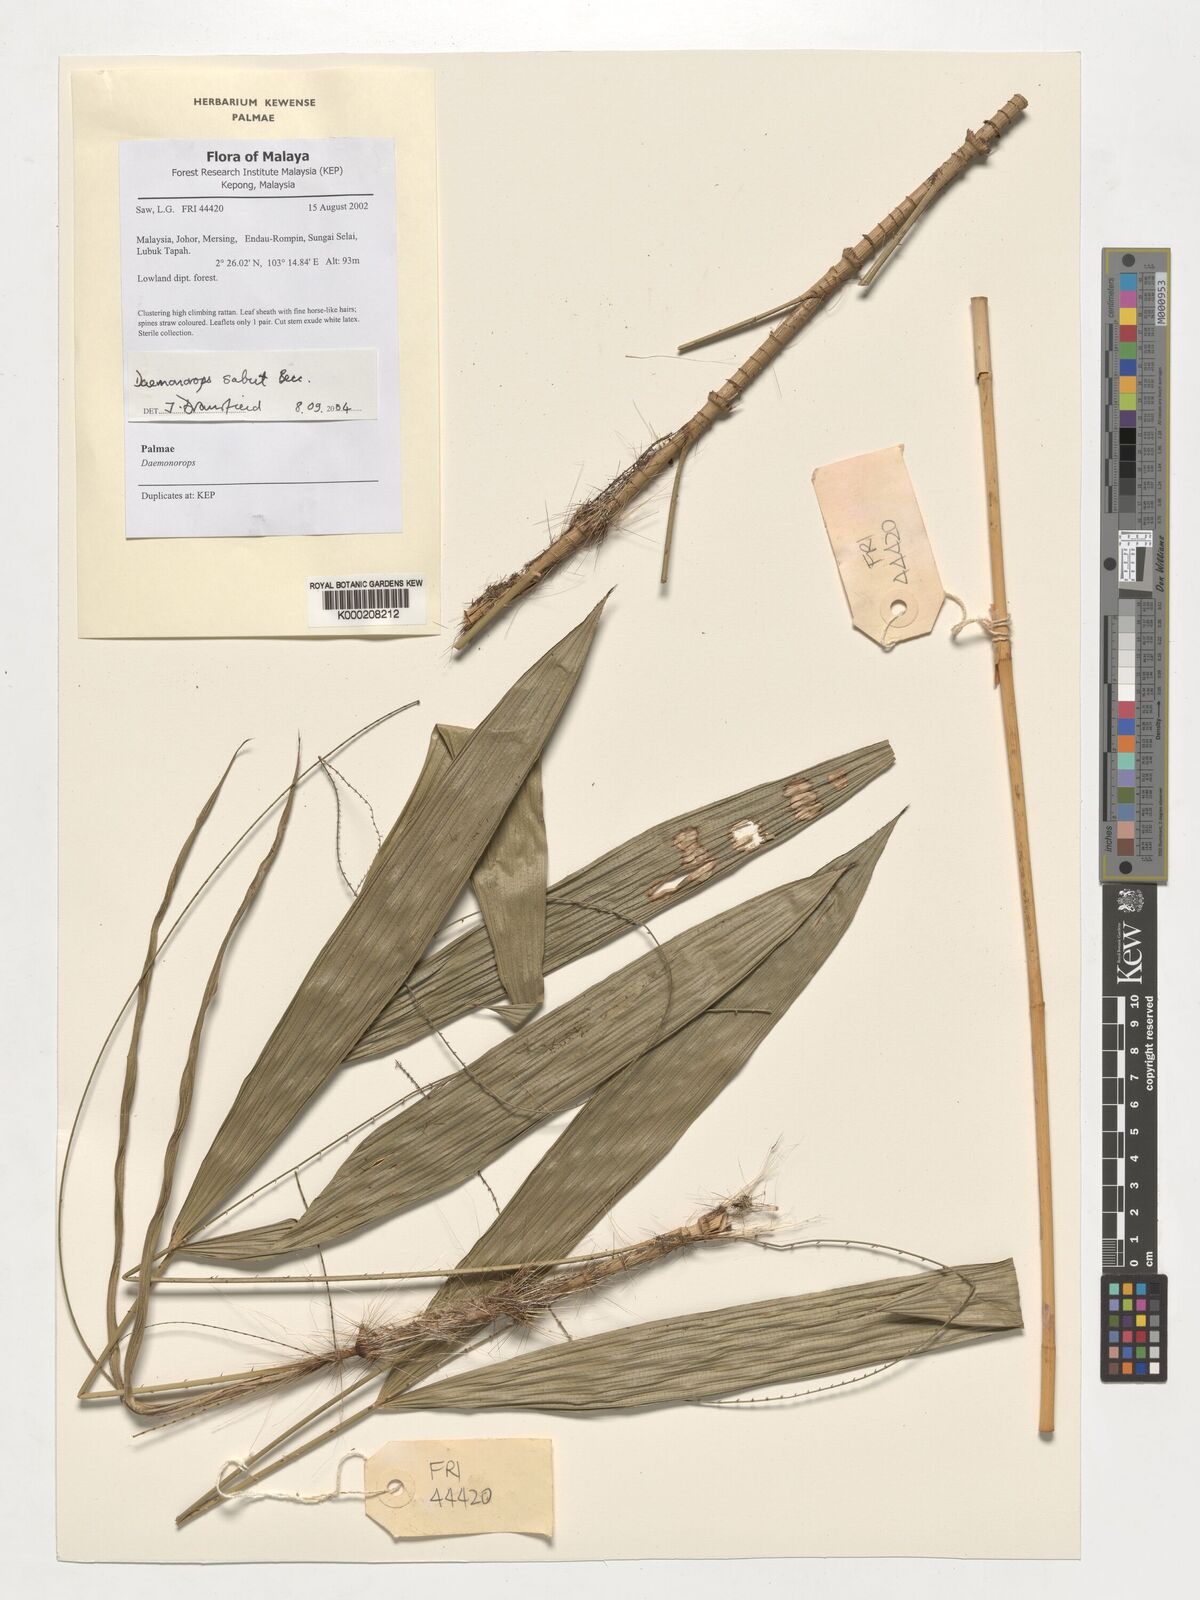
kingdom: Plantae
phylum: Tracheophyta
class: Liliopsida
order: Arecales
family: Arecaceae
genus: Calamus
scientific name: Calamus crinitus
